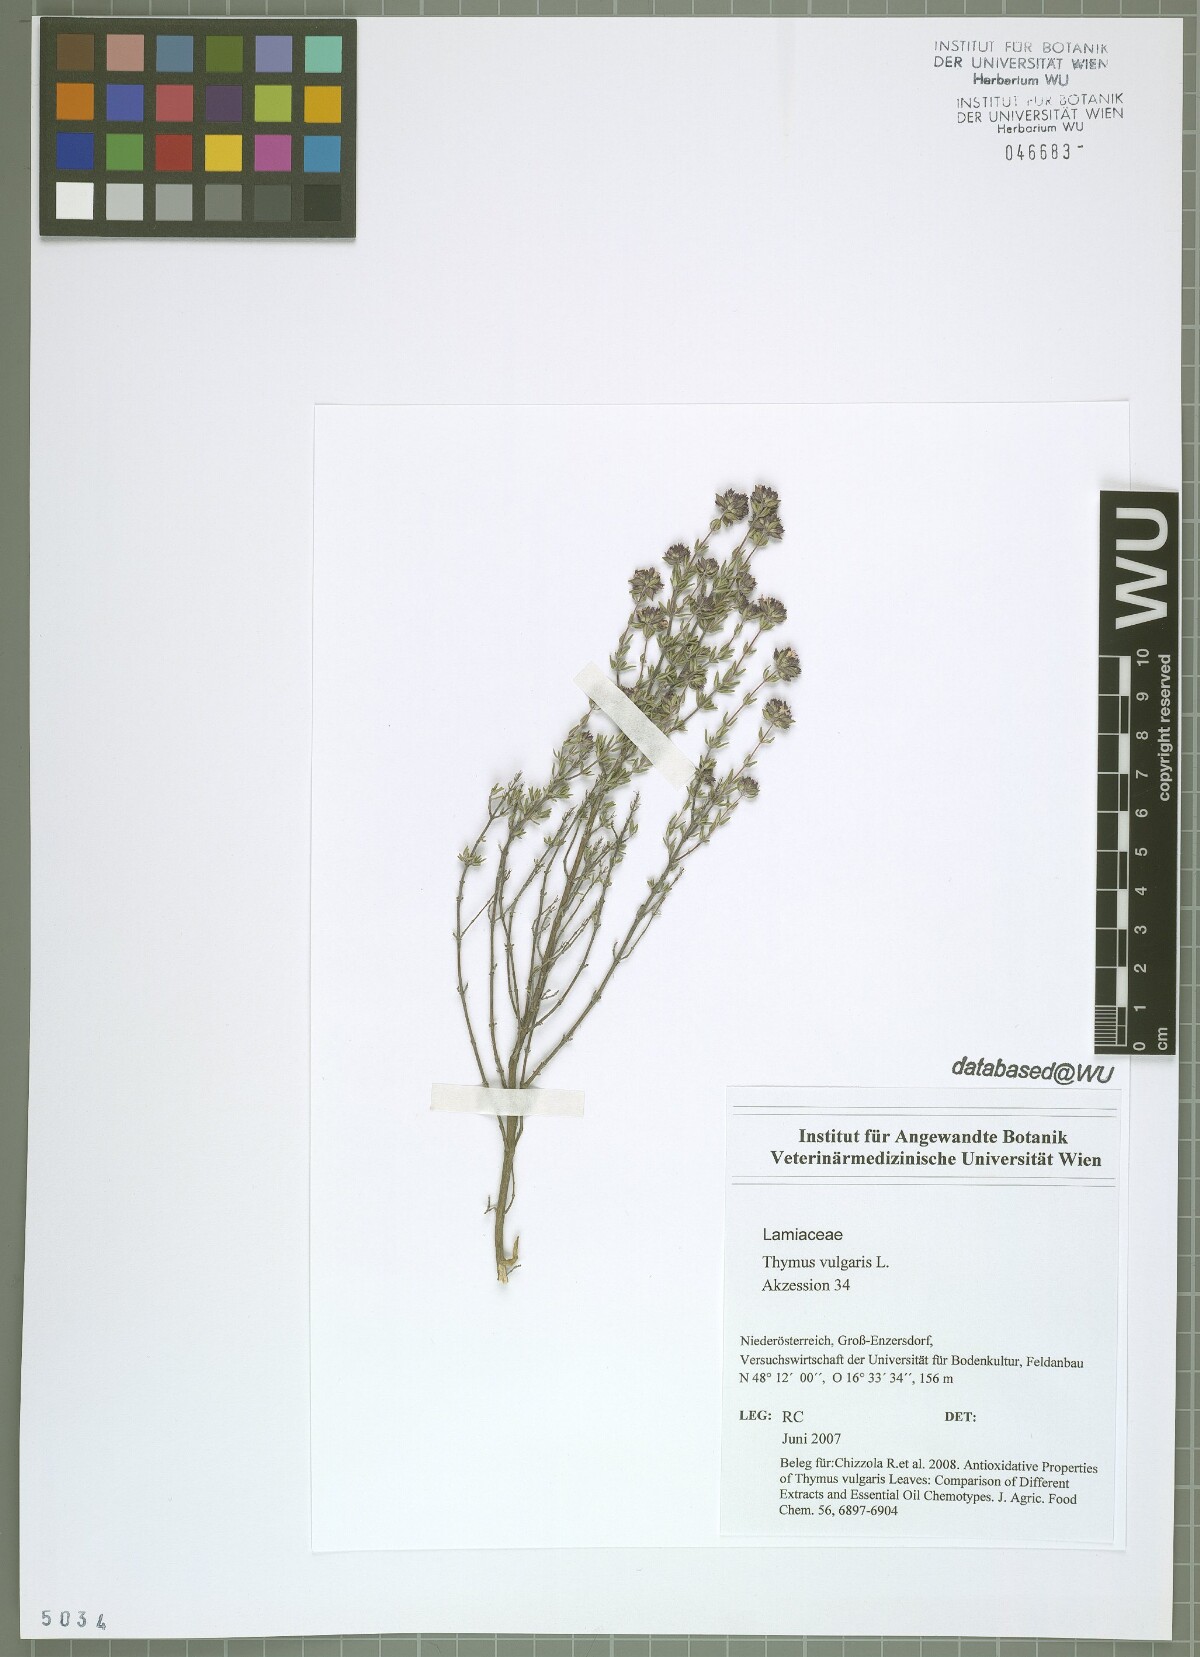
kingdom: Plantae
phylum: Tracheophyta
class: Magnoliopsida
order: Lamiales
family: Lamiaceae
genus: Thymus
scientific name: Thymus vulgaris
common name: Garden thyme
